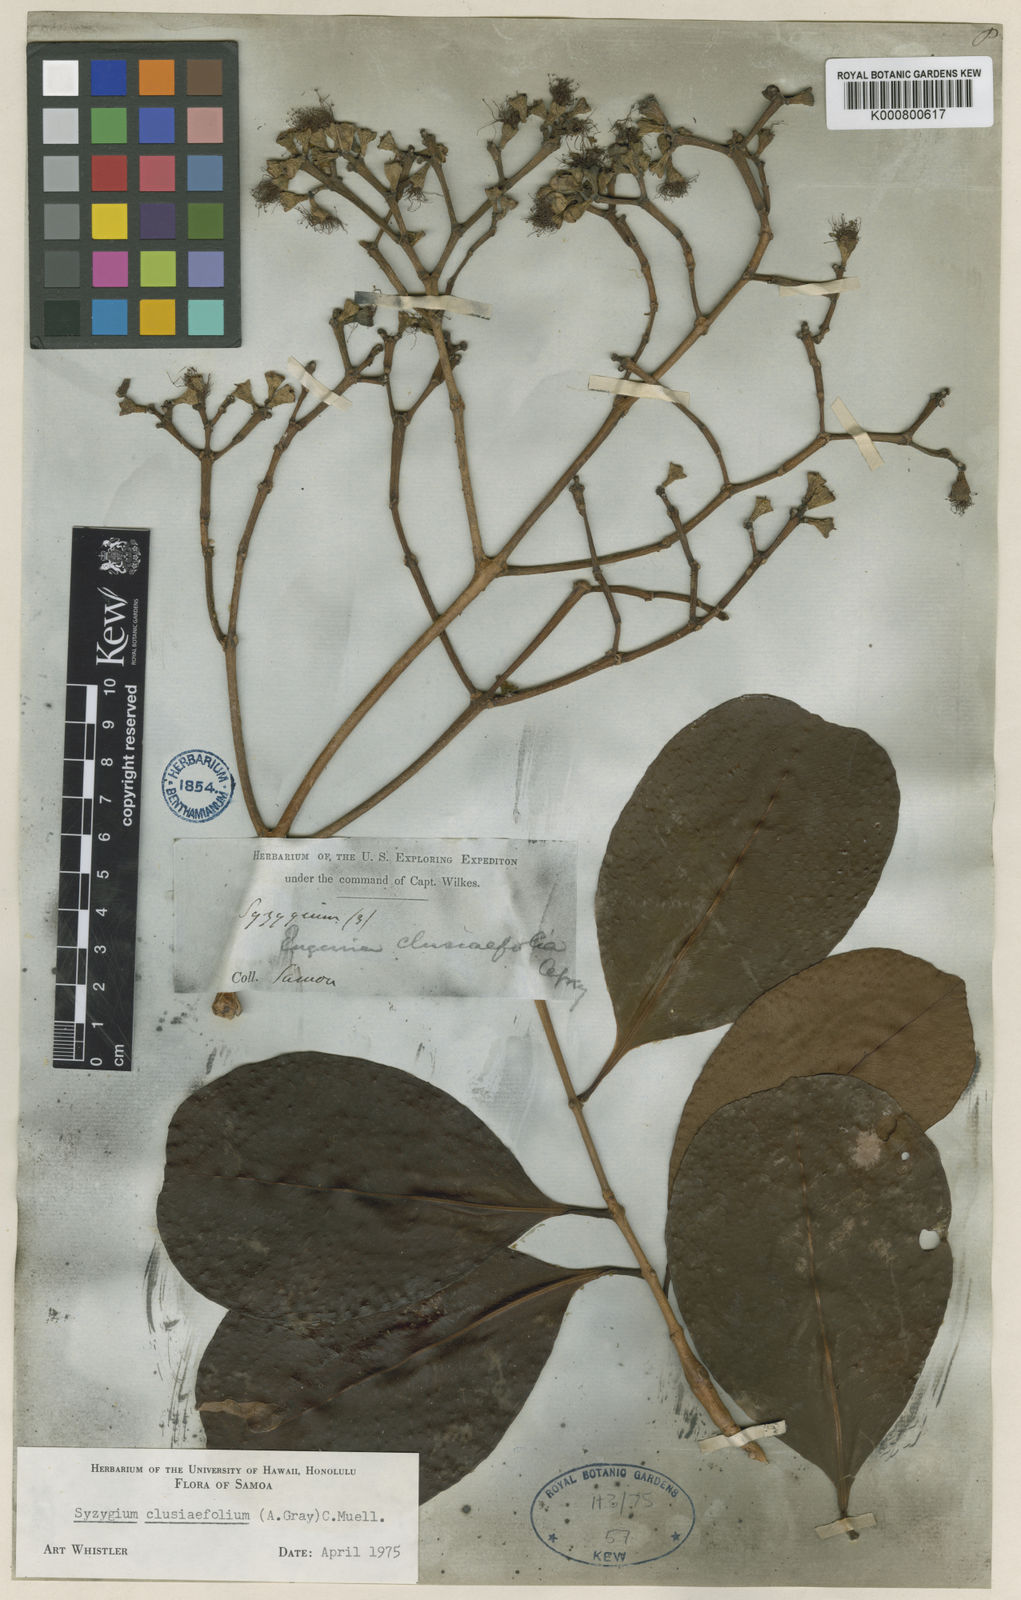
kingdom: Plantae
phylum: Tracheophyta
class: Magnoliopsida
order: Myrtales
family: Myrtaceae
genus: Syzygium
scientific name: Syzygium
